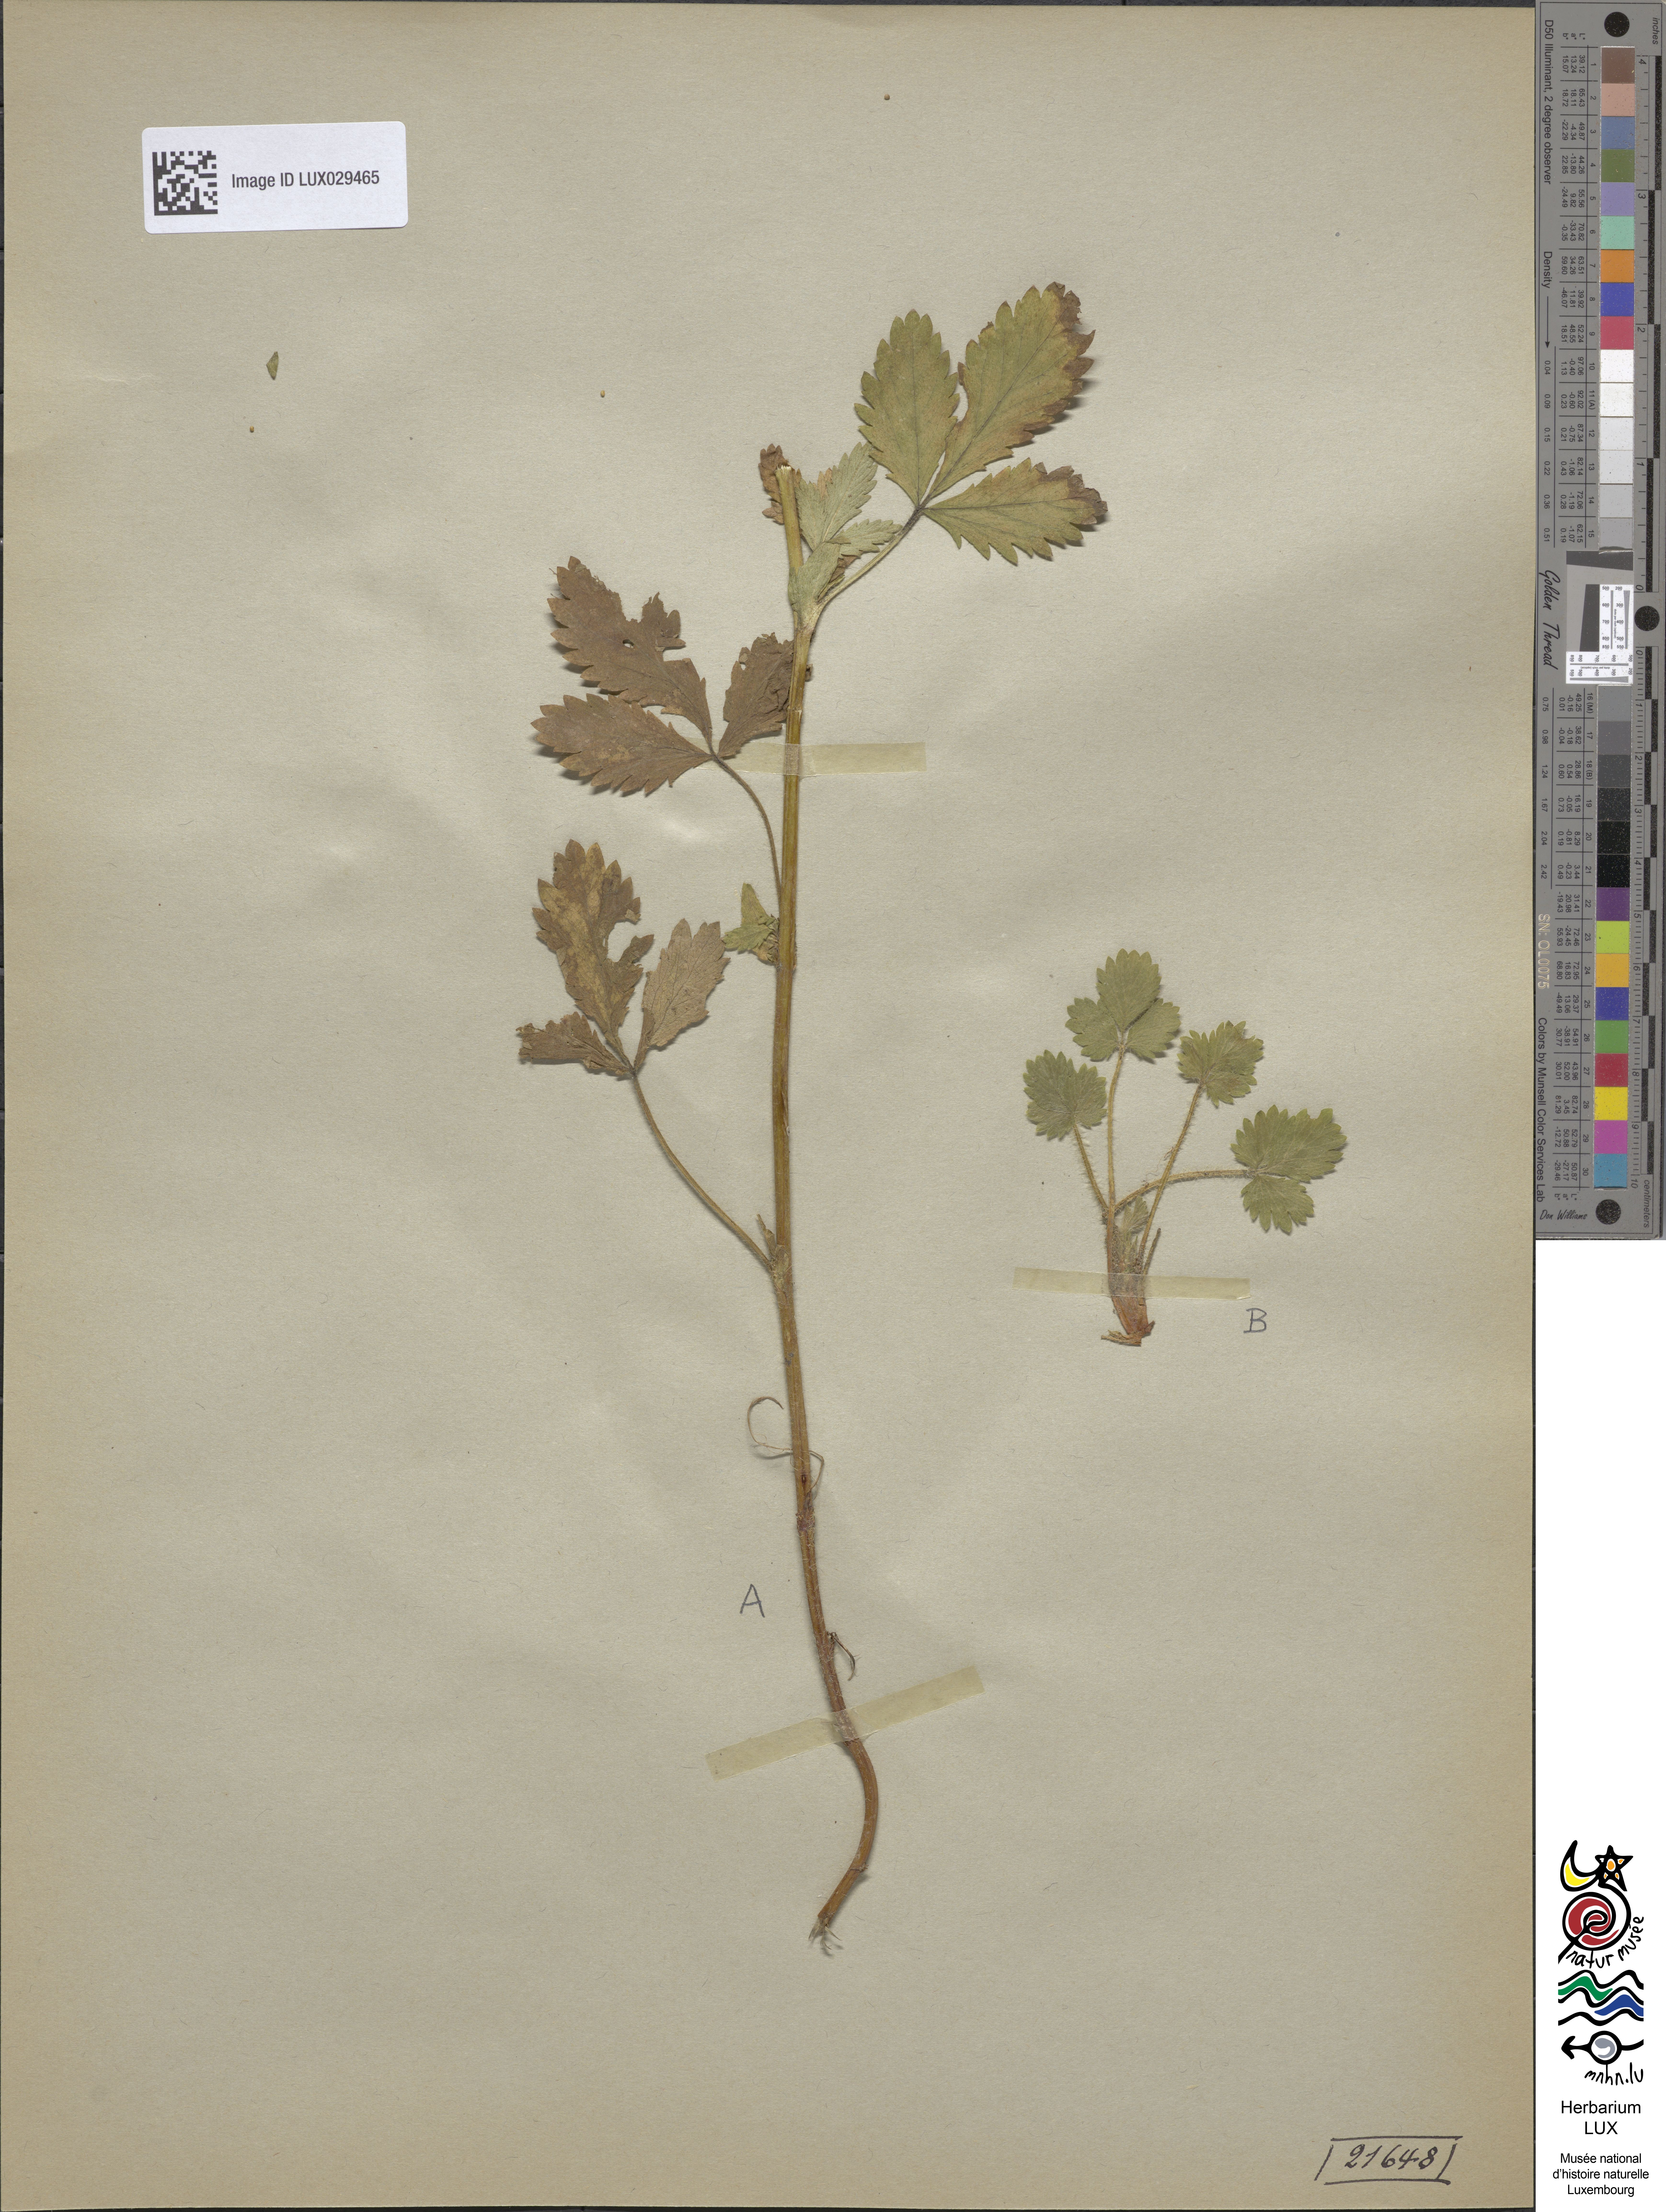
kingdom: Plantae
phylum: Tracheophyta
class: Magnoliopsida
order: Rosales
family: Rosaceae
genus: Potentilla
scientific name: Potentilla norvegica
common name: Ternate-leaved cinquefoil
